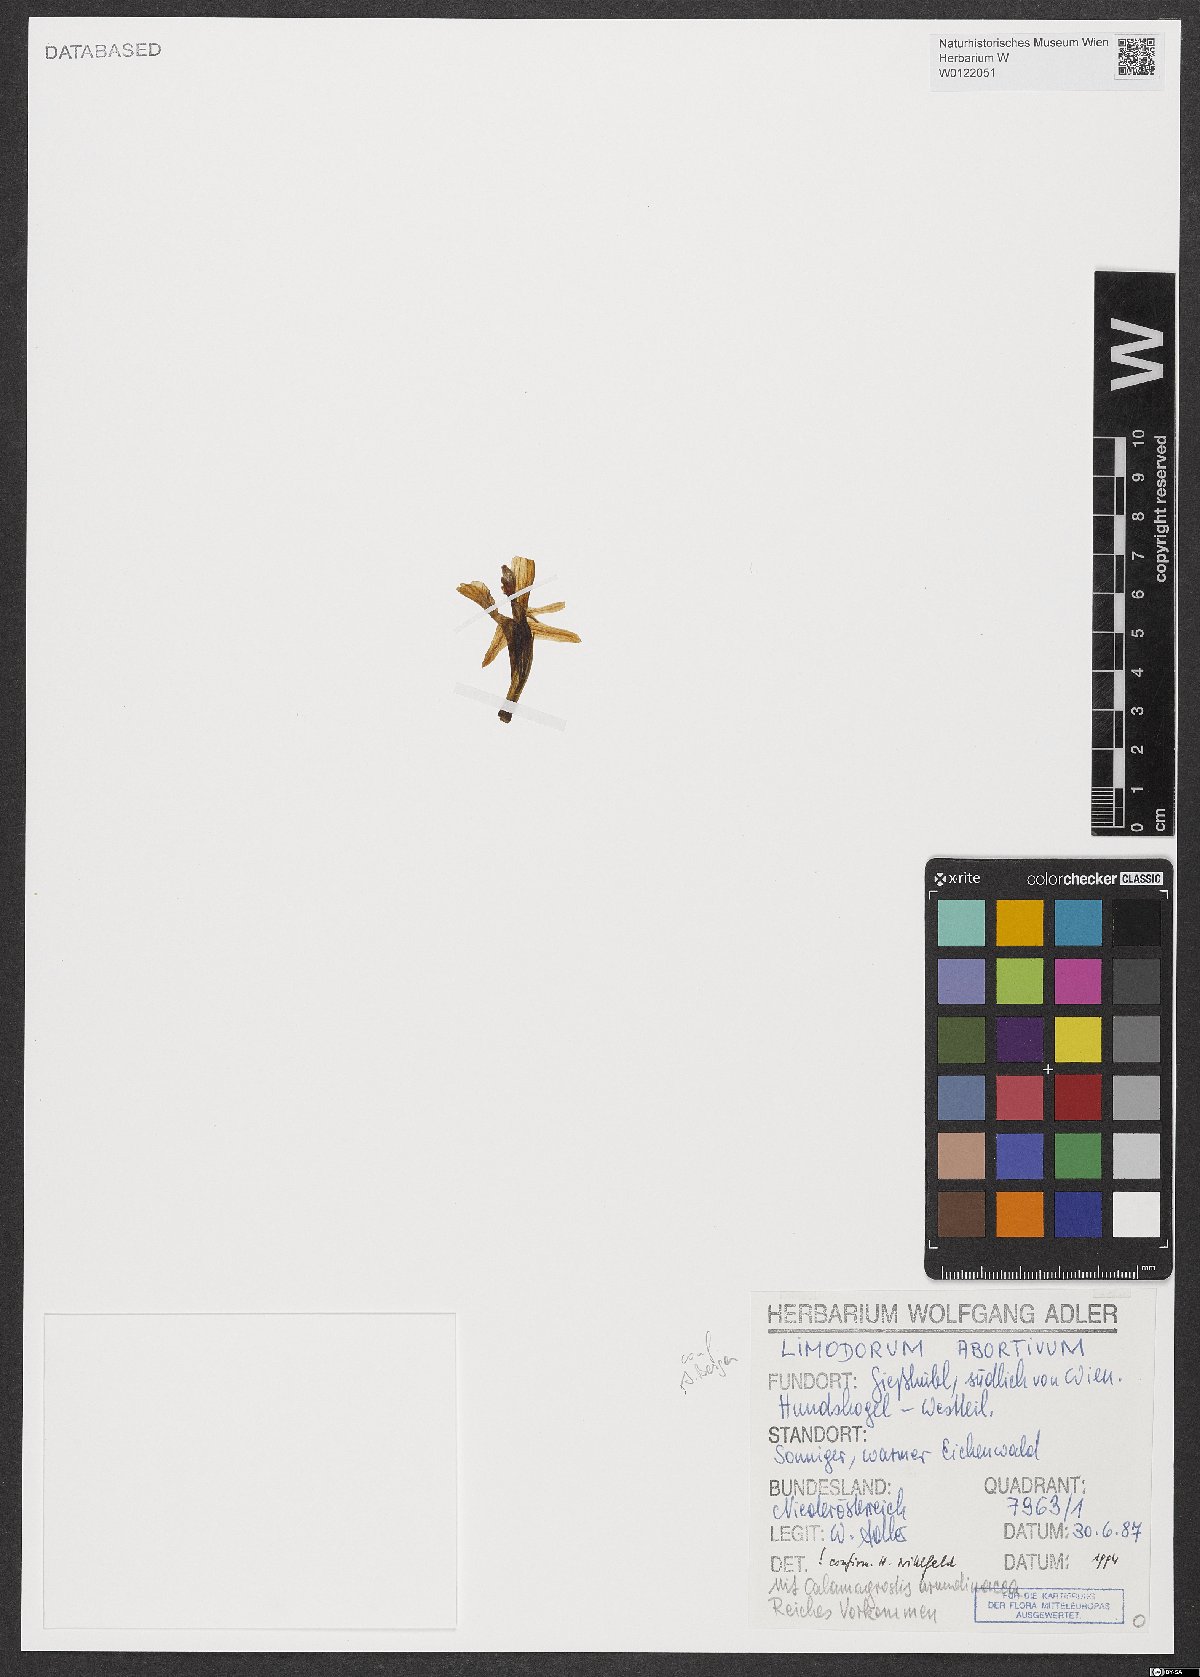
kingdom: Plantae
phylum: Tracheophyta
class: Liliopsida
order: Asparagales
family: Orchidaceae
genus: Limodorum
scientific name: Limodorum abortivum
